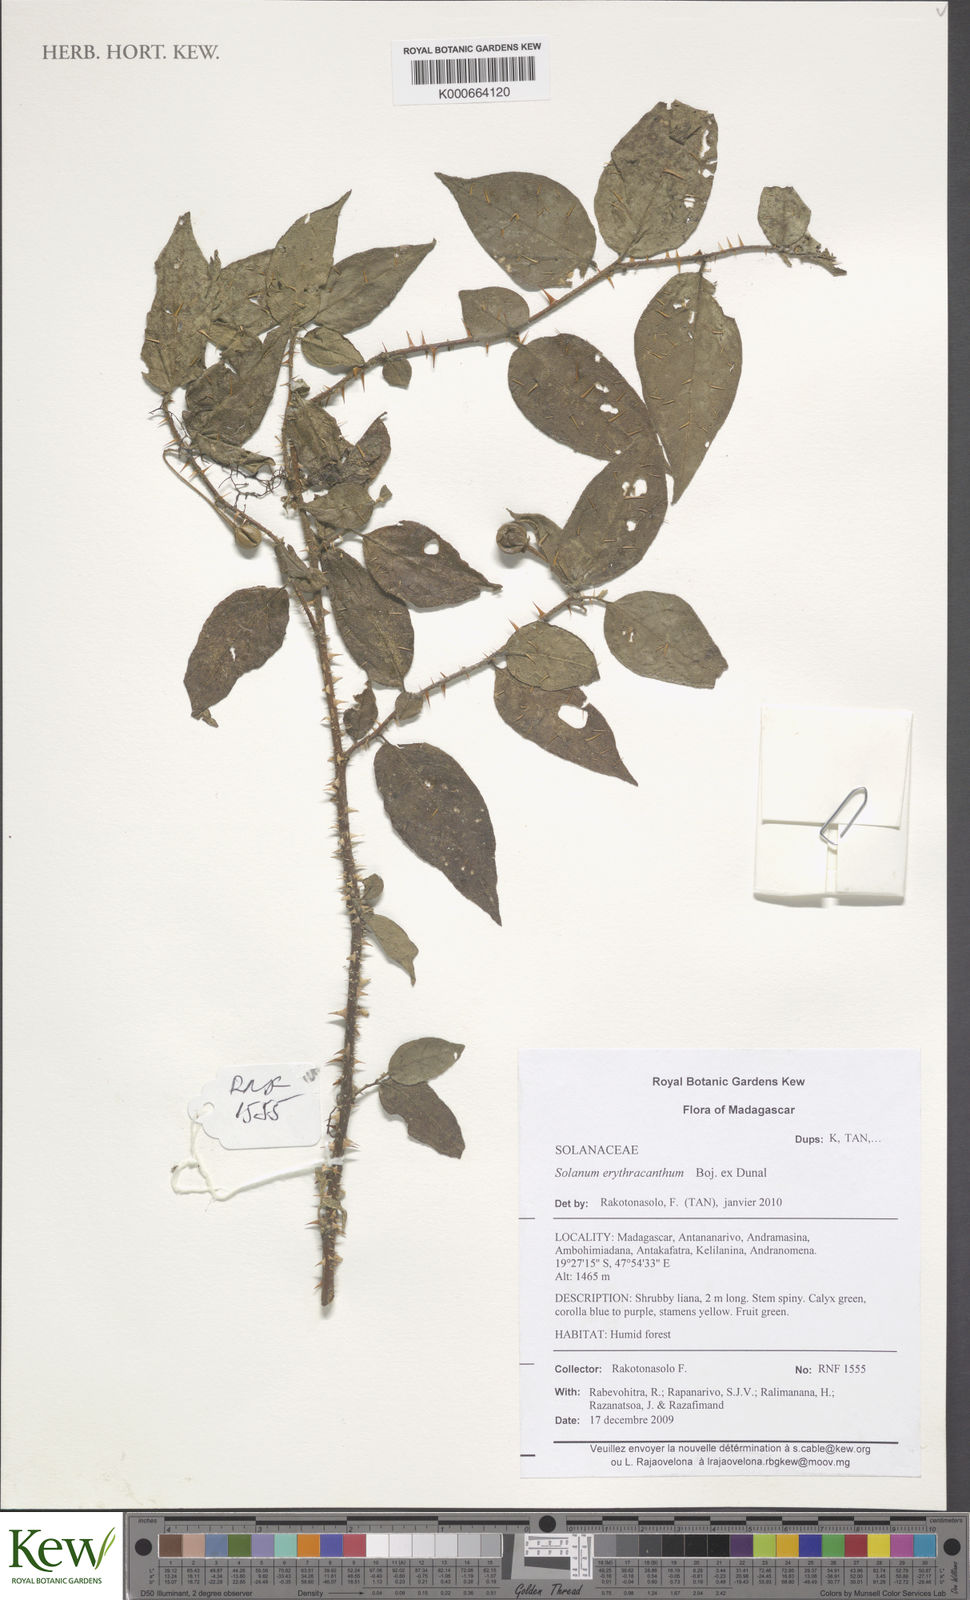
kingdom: Plantae
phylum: Tracheophyta
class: Magnoliopsida
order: Solanales
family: Solanaceae
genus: Solanum
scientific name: Solanum erythracanthum
